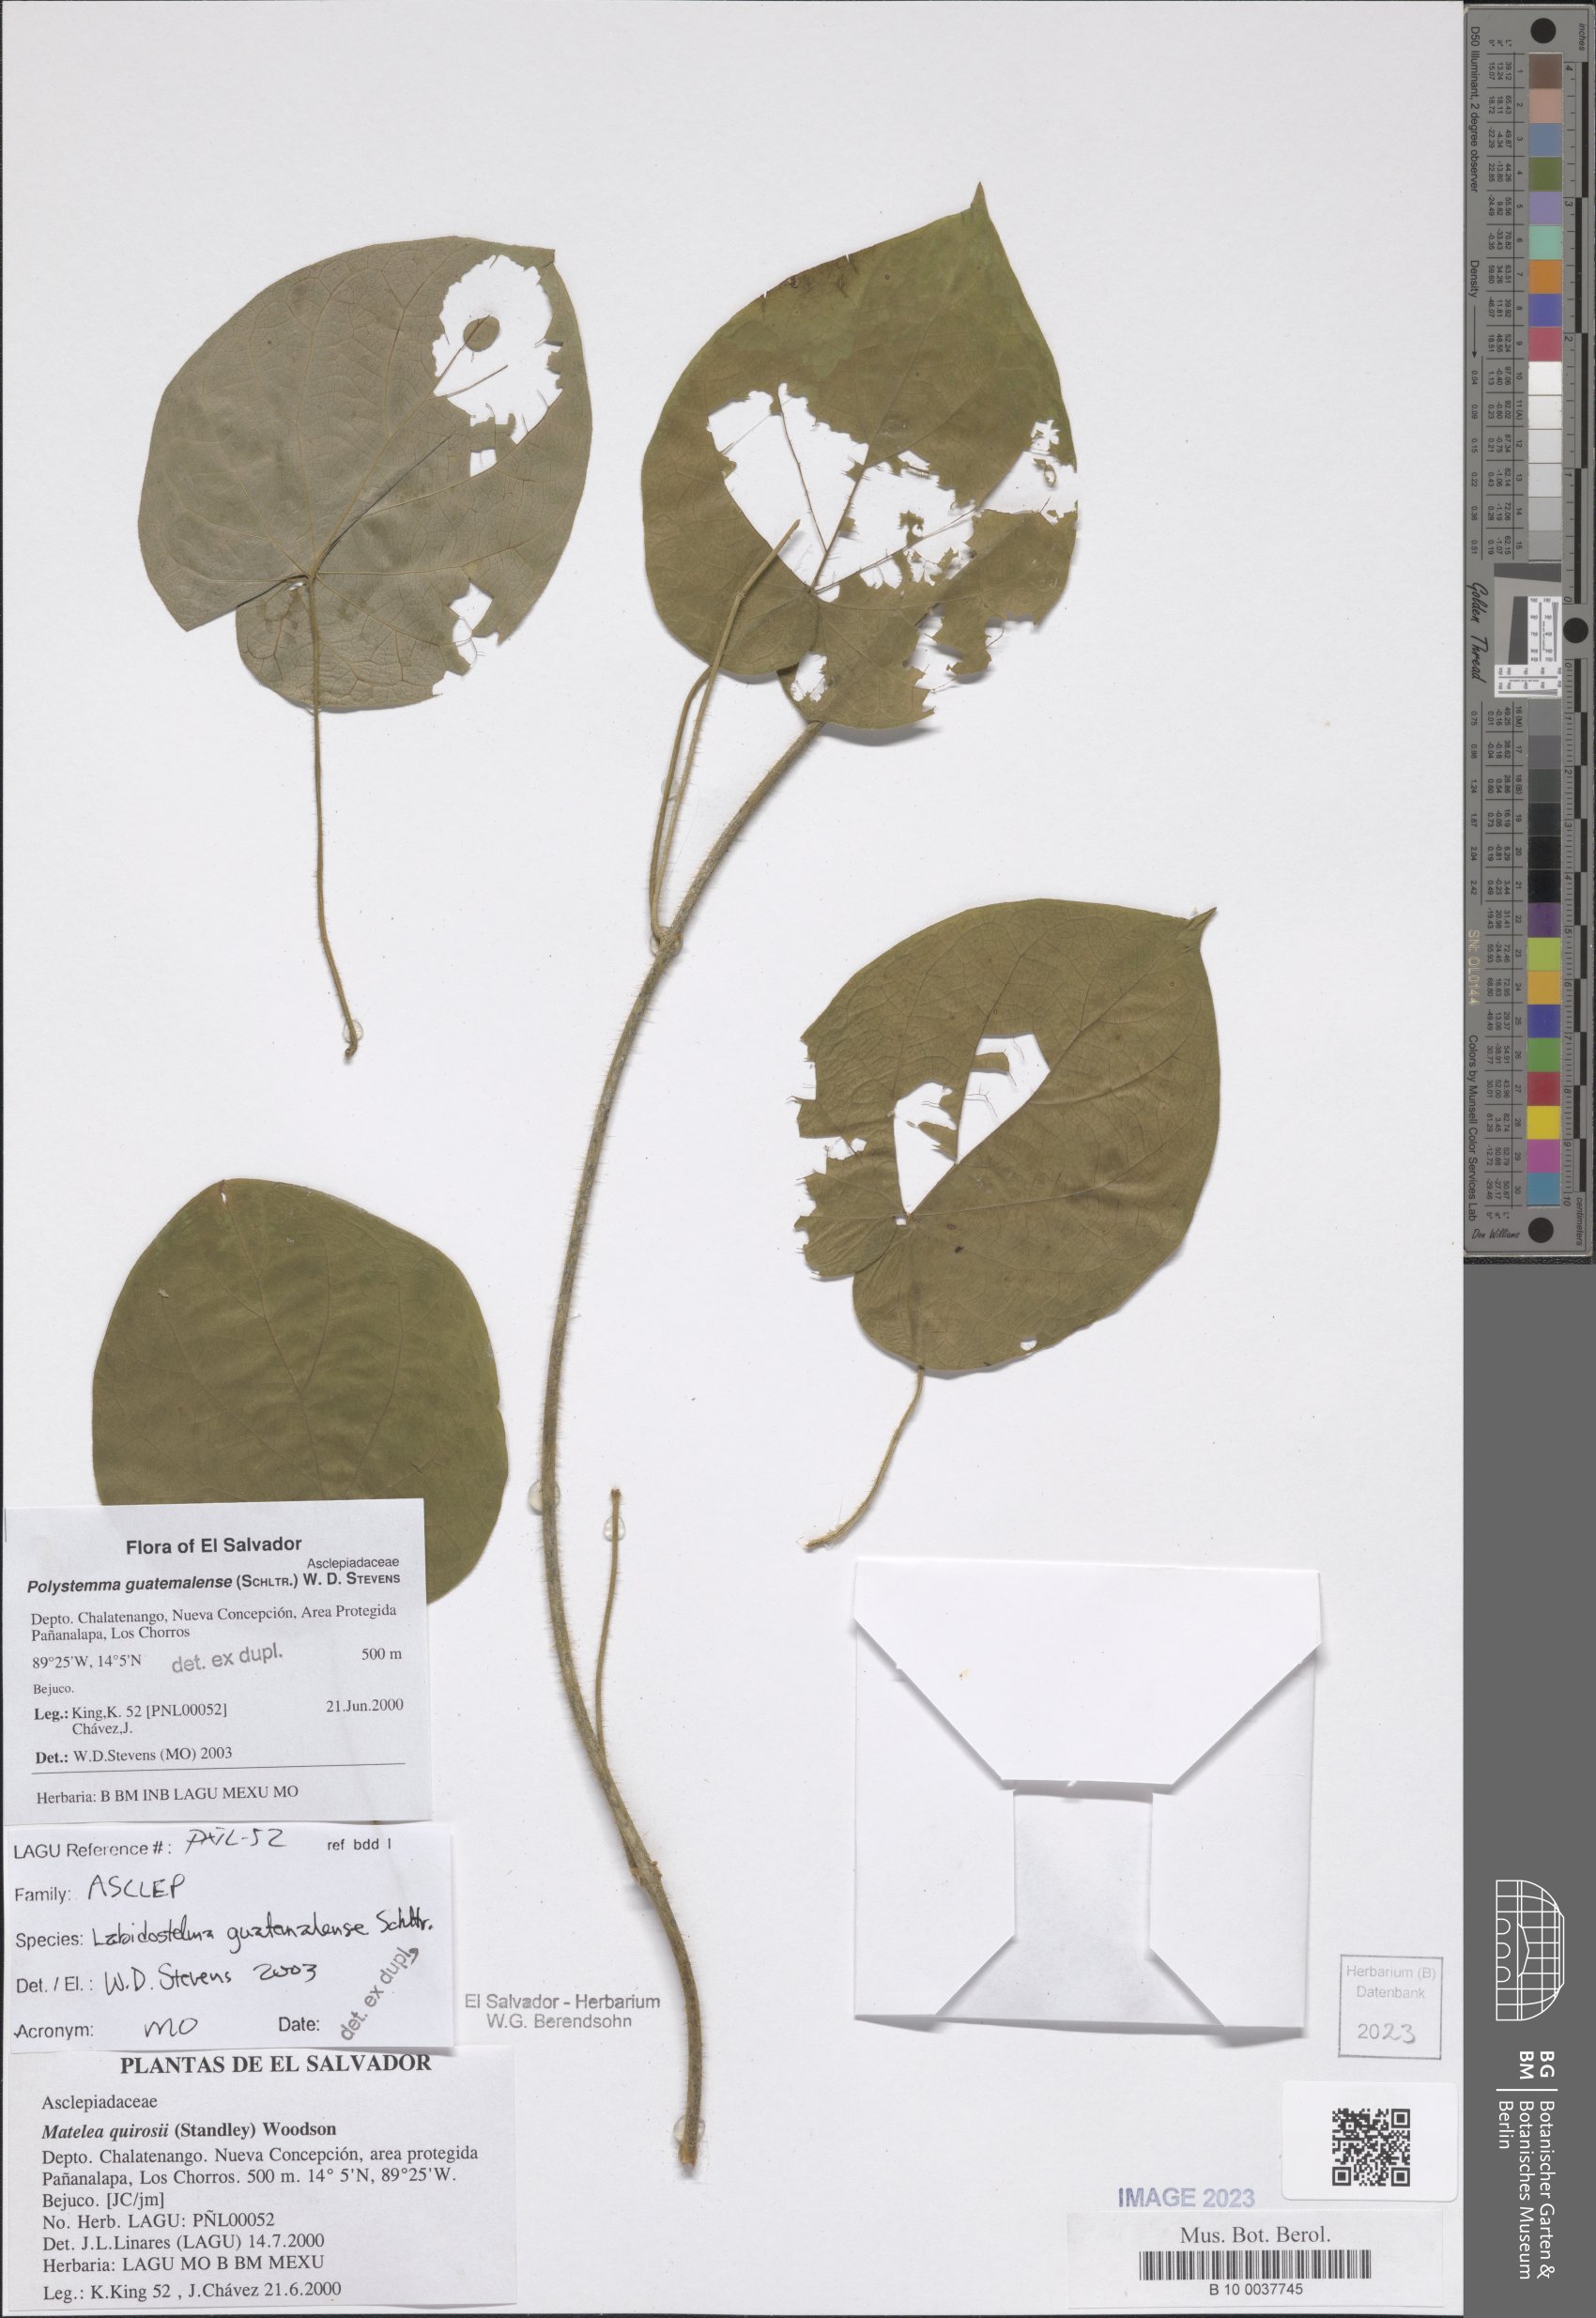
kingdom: Plantae
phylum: Tracheophyta
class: Magnoliopsida
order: Gentianales
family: Apocynaceae
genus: Polystemma
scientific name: Polystemma guatemalense
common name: Arborescente rattan
